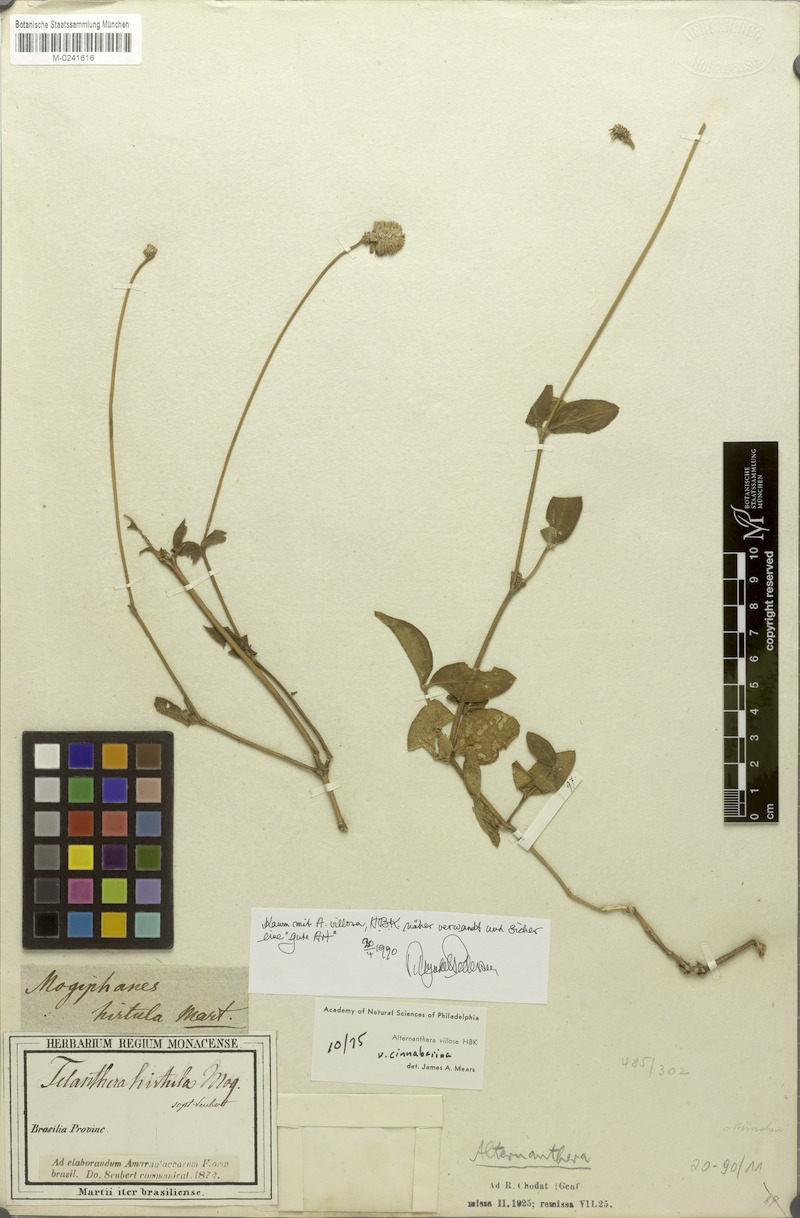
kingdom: Plantae
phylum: Tracheophyta
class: Magnoliopsida
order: Caryophyllales
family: Amaranthaceae
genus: Alternanthera
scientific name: Alternanthera hirtula
